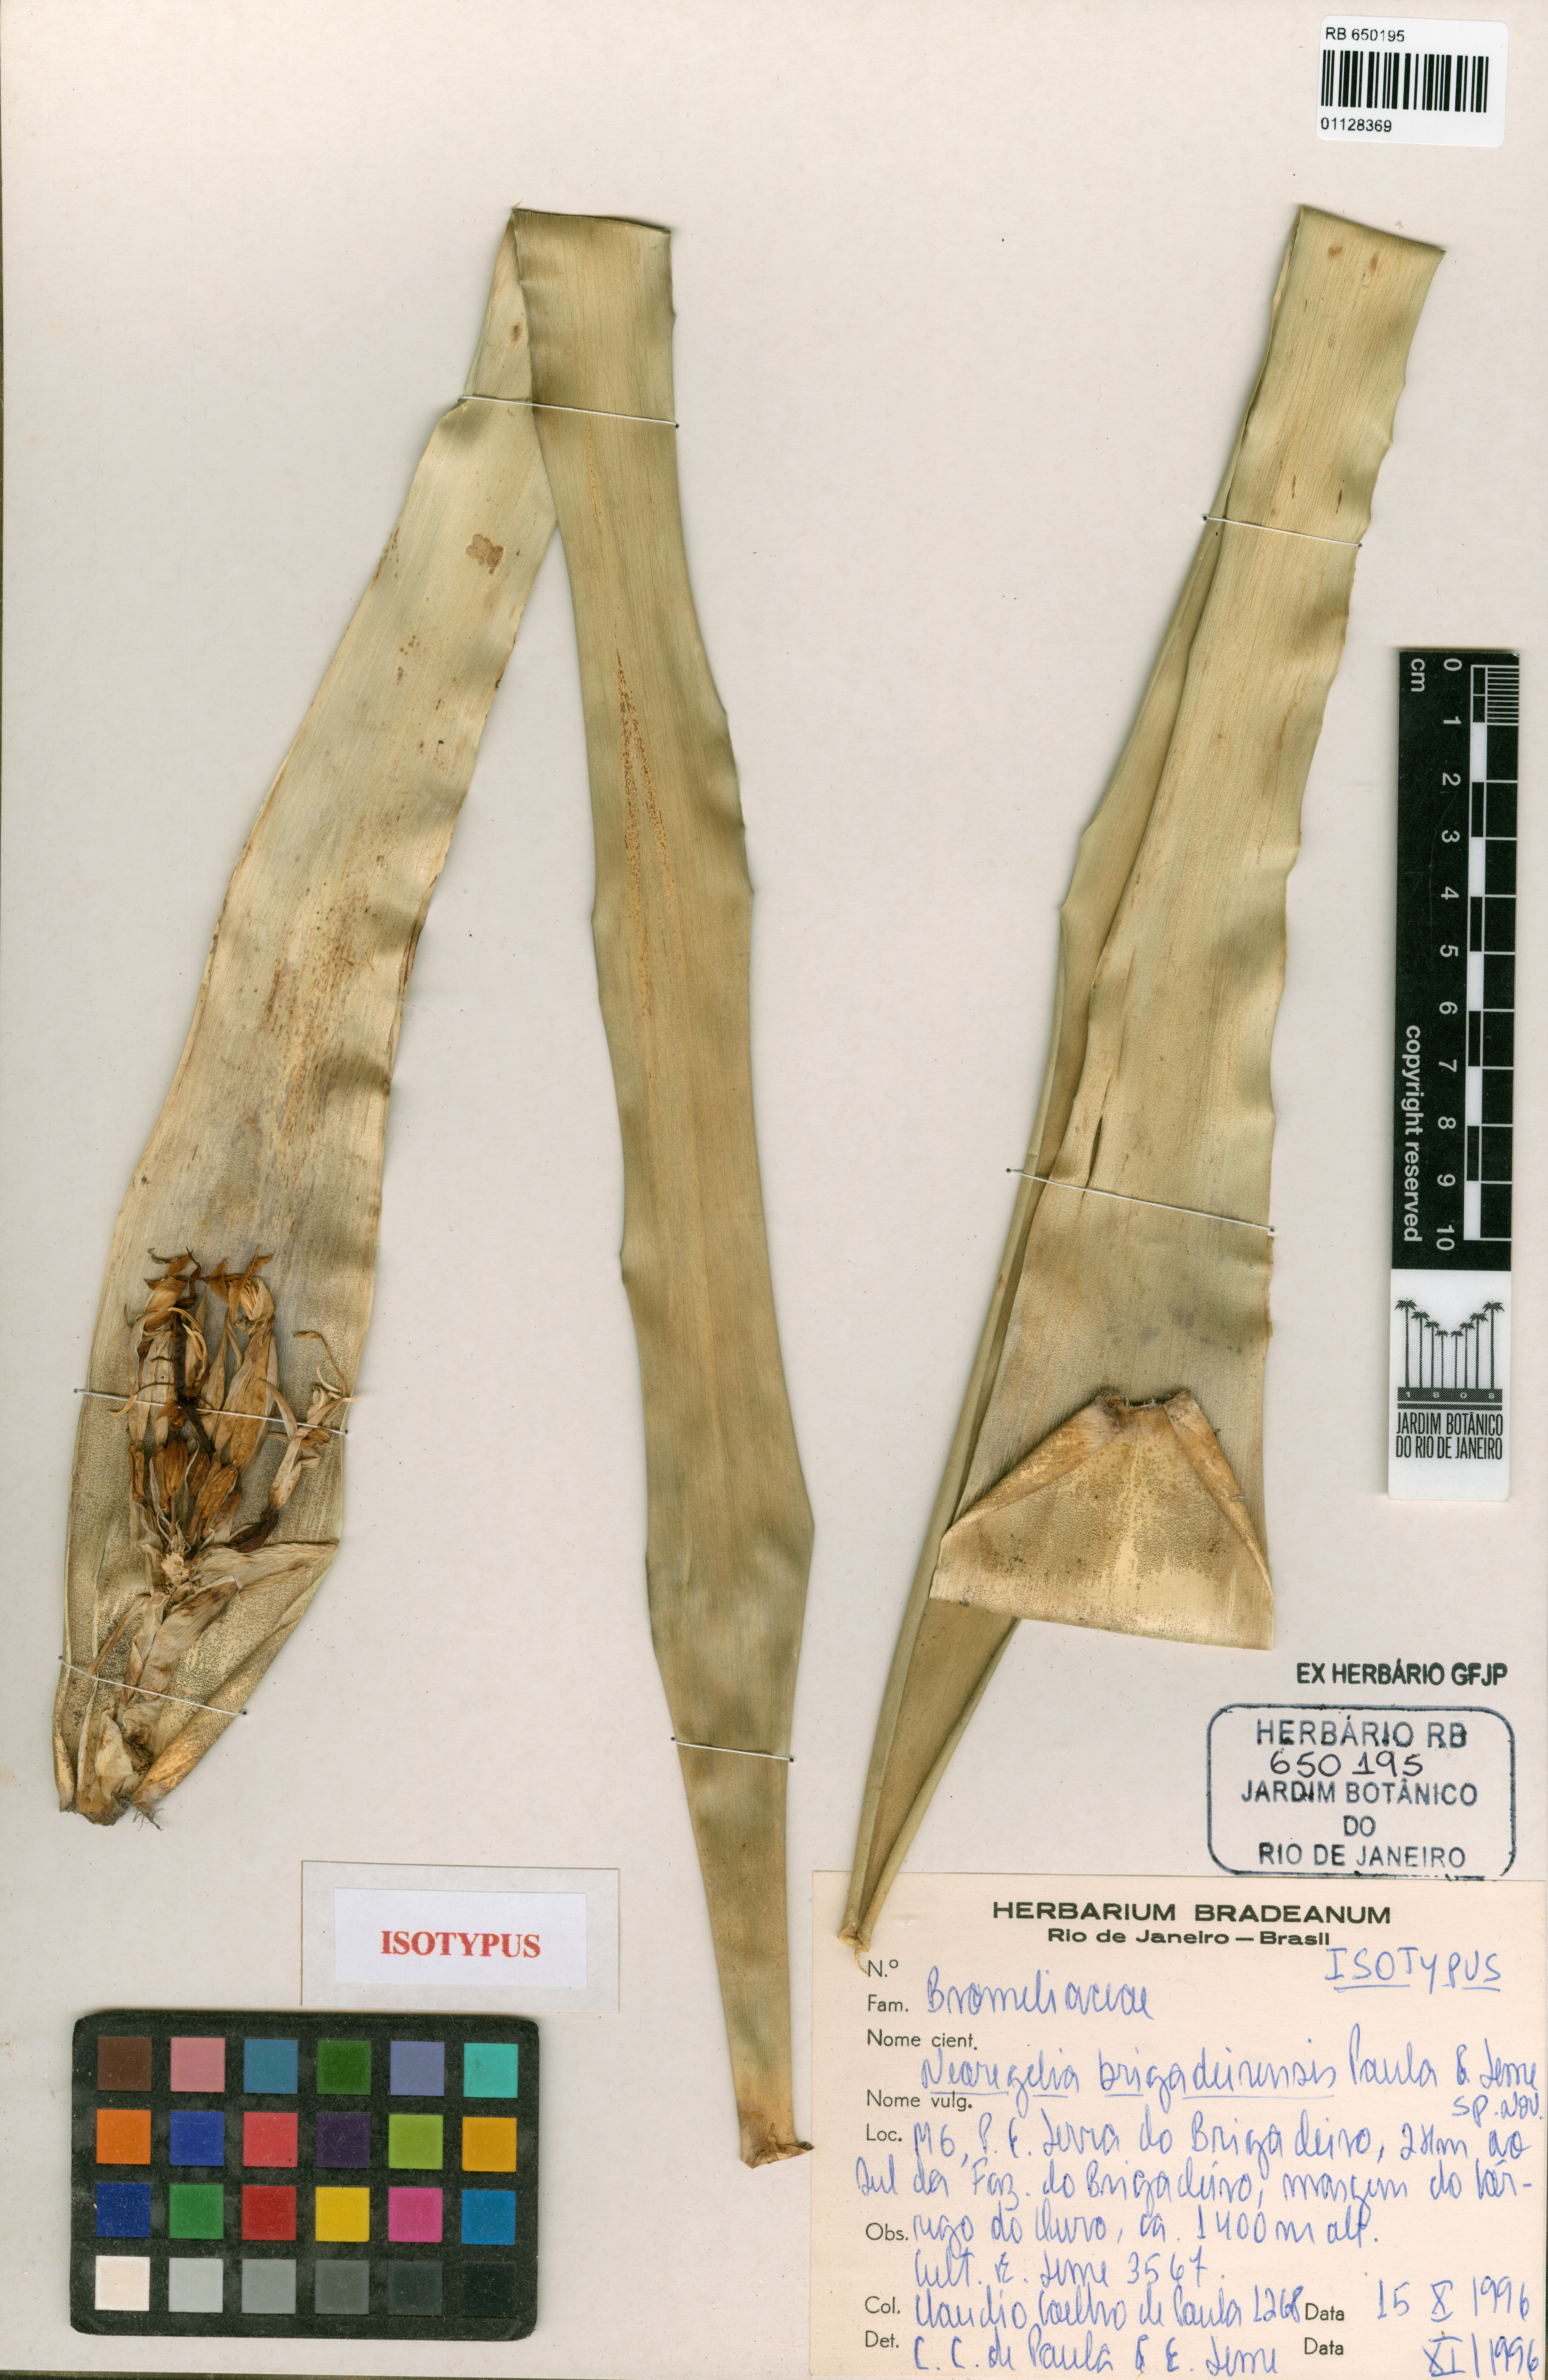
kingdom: Plantae
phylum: Tracheophyta
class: Liliopsida
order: Poales
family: Bromeliaceae
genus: Neoregelia
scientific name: Neoregelia brigadeirensis
